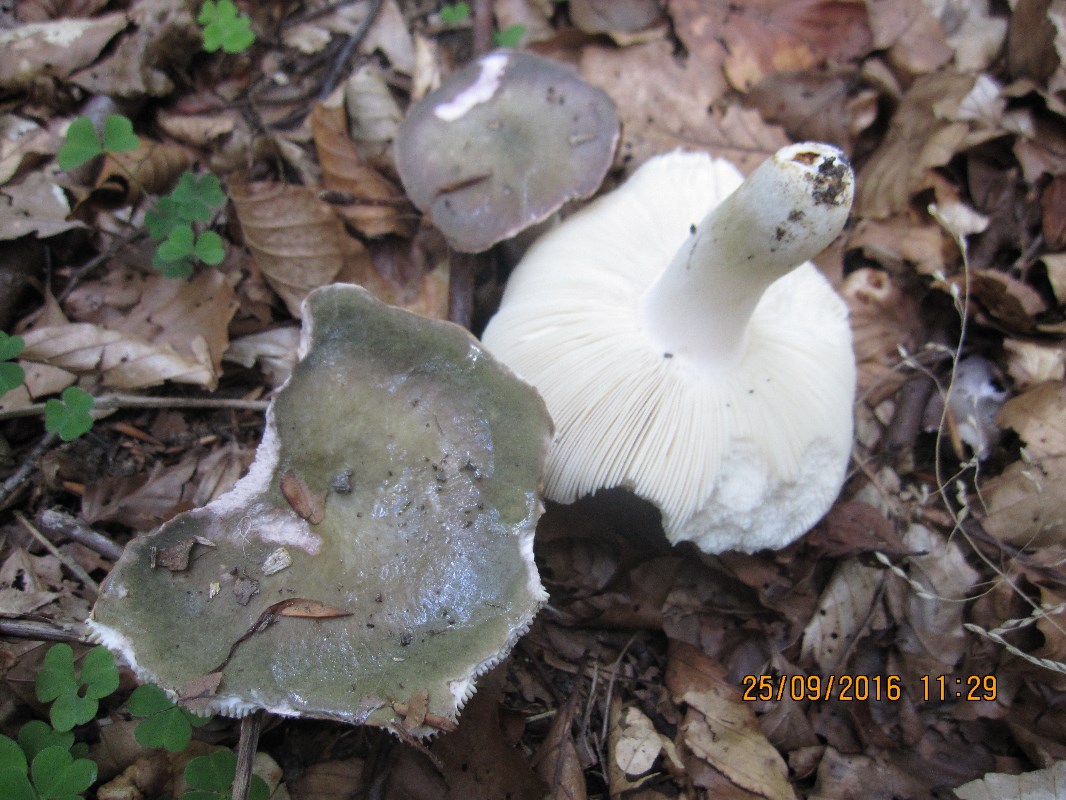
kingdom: Fungi
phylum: Basidiomycota
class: Agaricomycetes
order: Russulales
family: Russulaceae
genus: Russula
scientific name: Russula ionochlora
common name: violetgrøn skørhat
